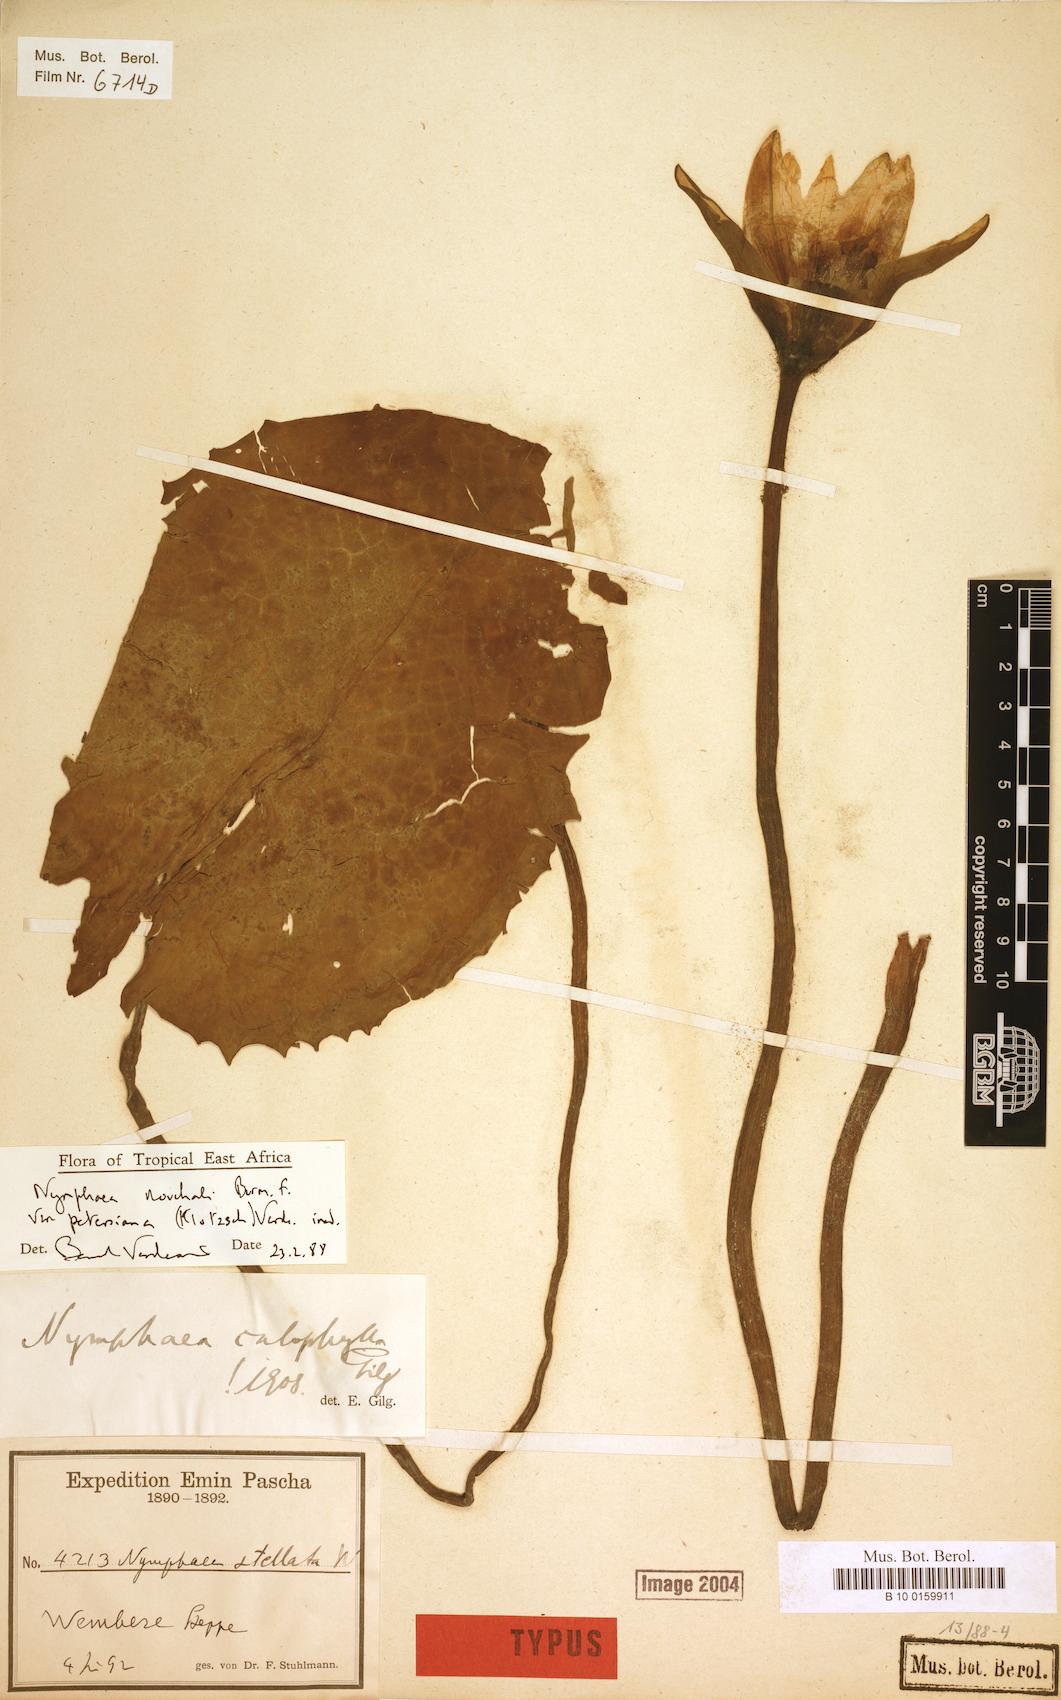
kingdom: Plantae
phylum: Tracheophyta
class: Magnoliopsida
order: Nymphaeales
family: Nymphaeaceae
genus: Nymphaea
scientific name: Nymphaea nouchali
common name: Blue lotus
